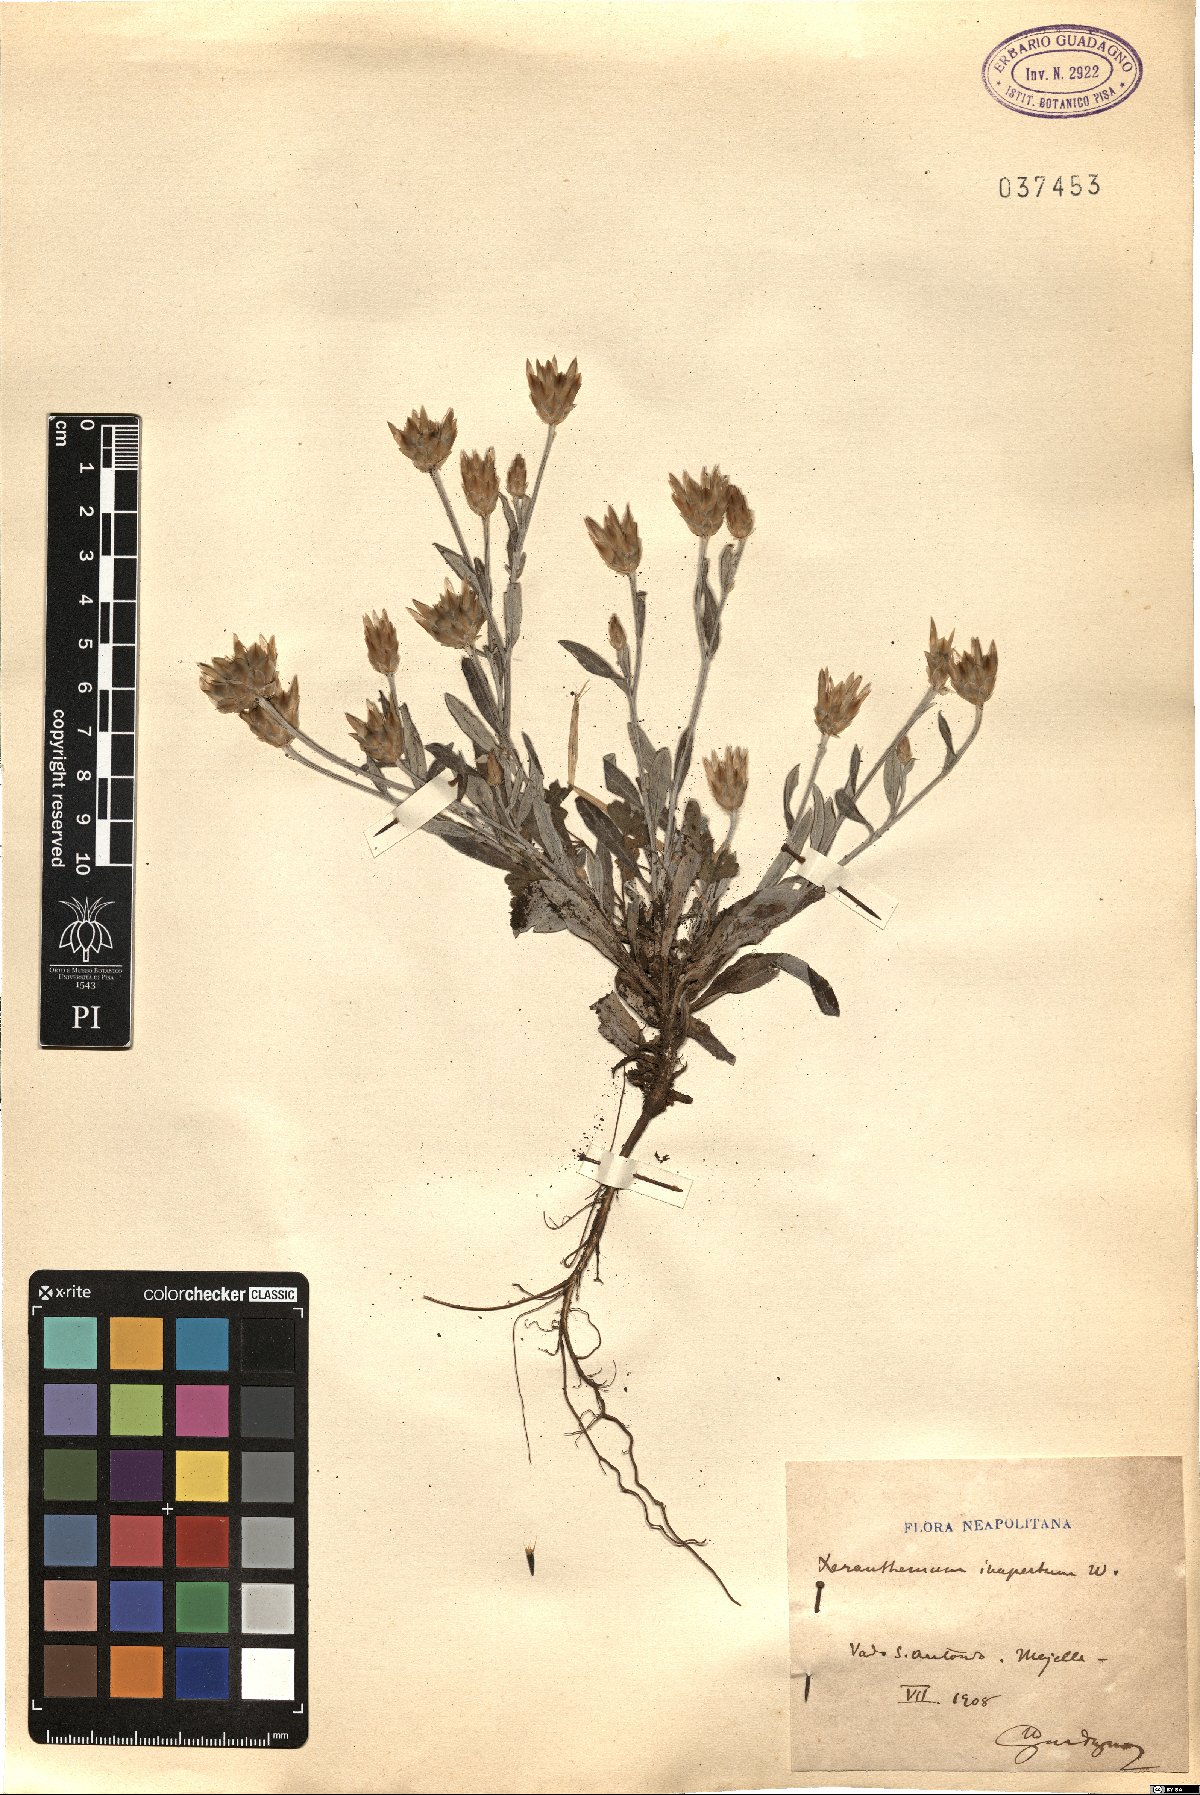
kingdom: Plantae
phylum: Tracheophyta
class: Magnoliopsida
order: Asterales
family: Asteraceae
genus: Xeranthemum
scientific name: Xeranthemum inapertum
